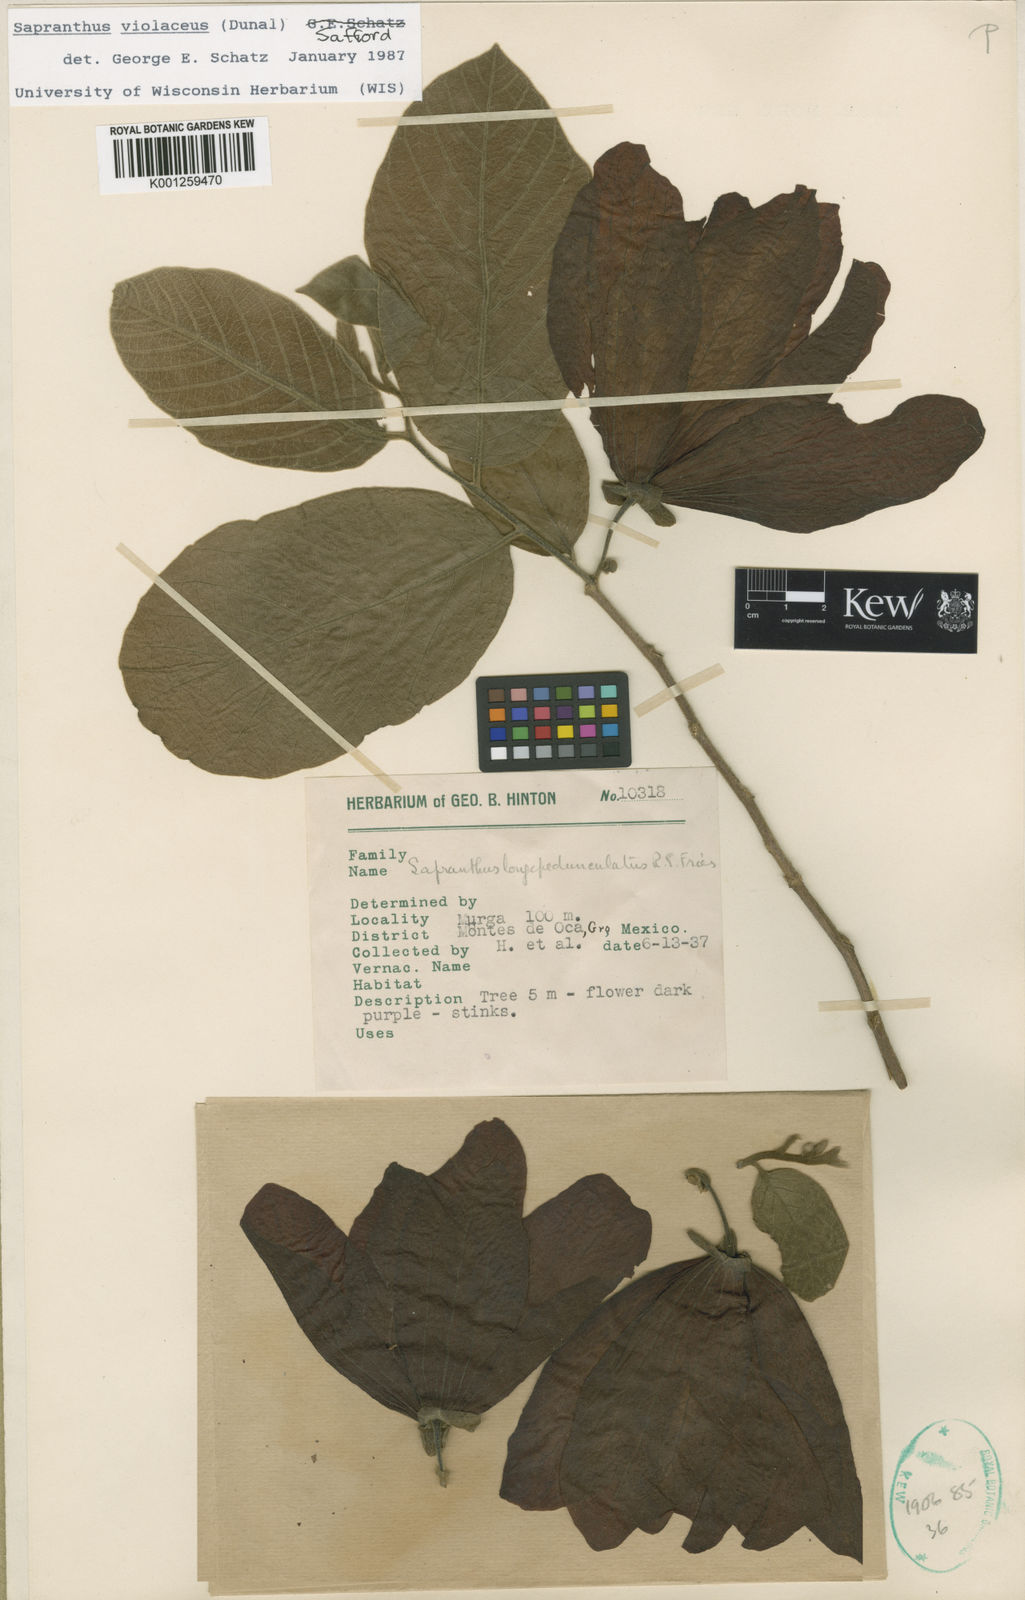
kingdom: Plantae
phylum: Tracheophyta
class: Magnoliopsida
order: Magnoliales
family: Annonaceae
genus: Sapranthus
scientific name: Sapranthus
